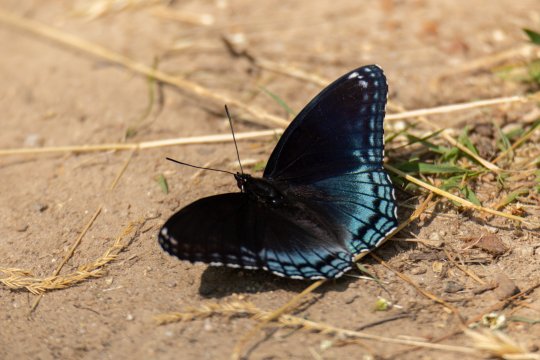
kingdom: Animalia
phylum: Arthropoda
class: Insecta
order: Lepidoptera
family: Nymphalidae
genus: Limenitis
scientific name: Limenitis arthemis
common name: Red-spotted Admiral
